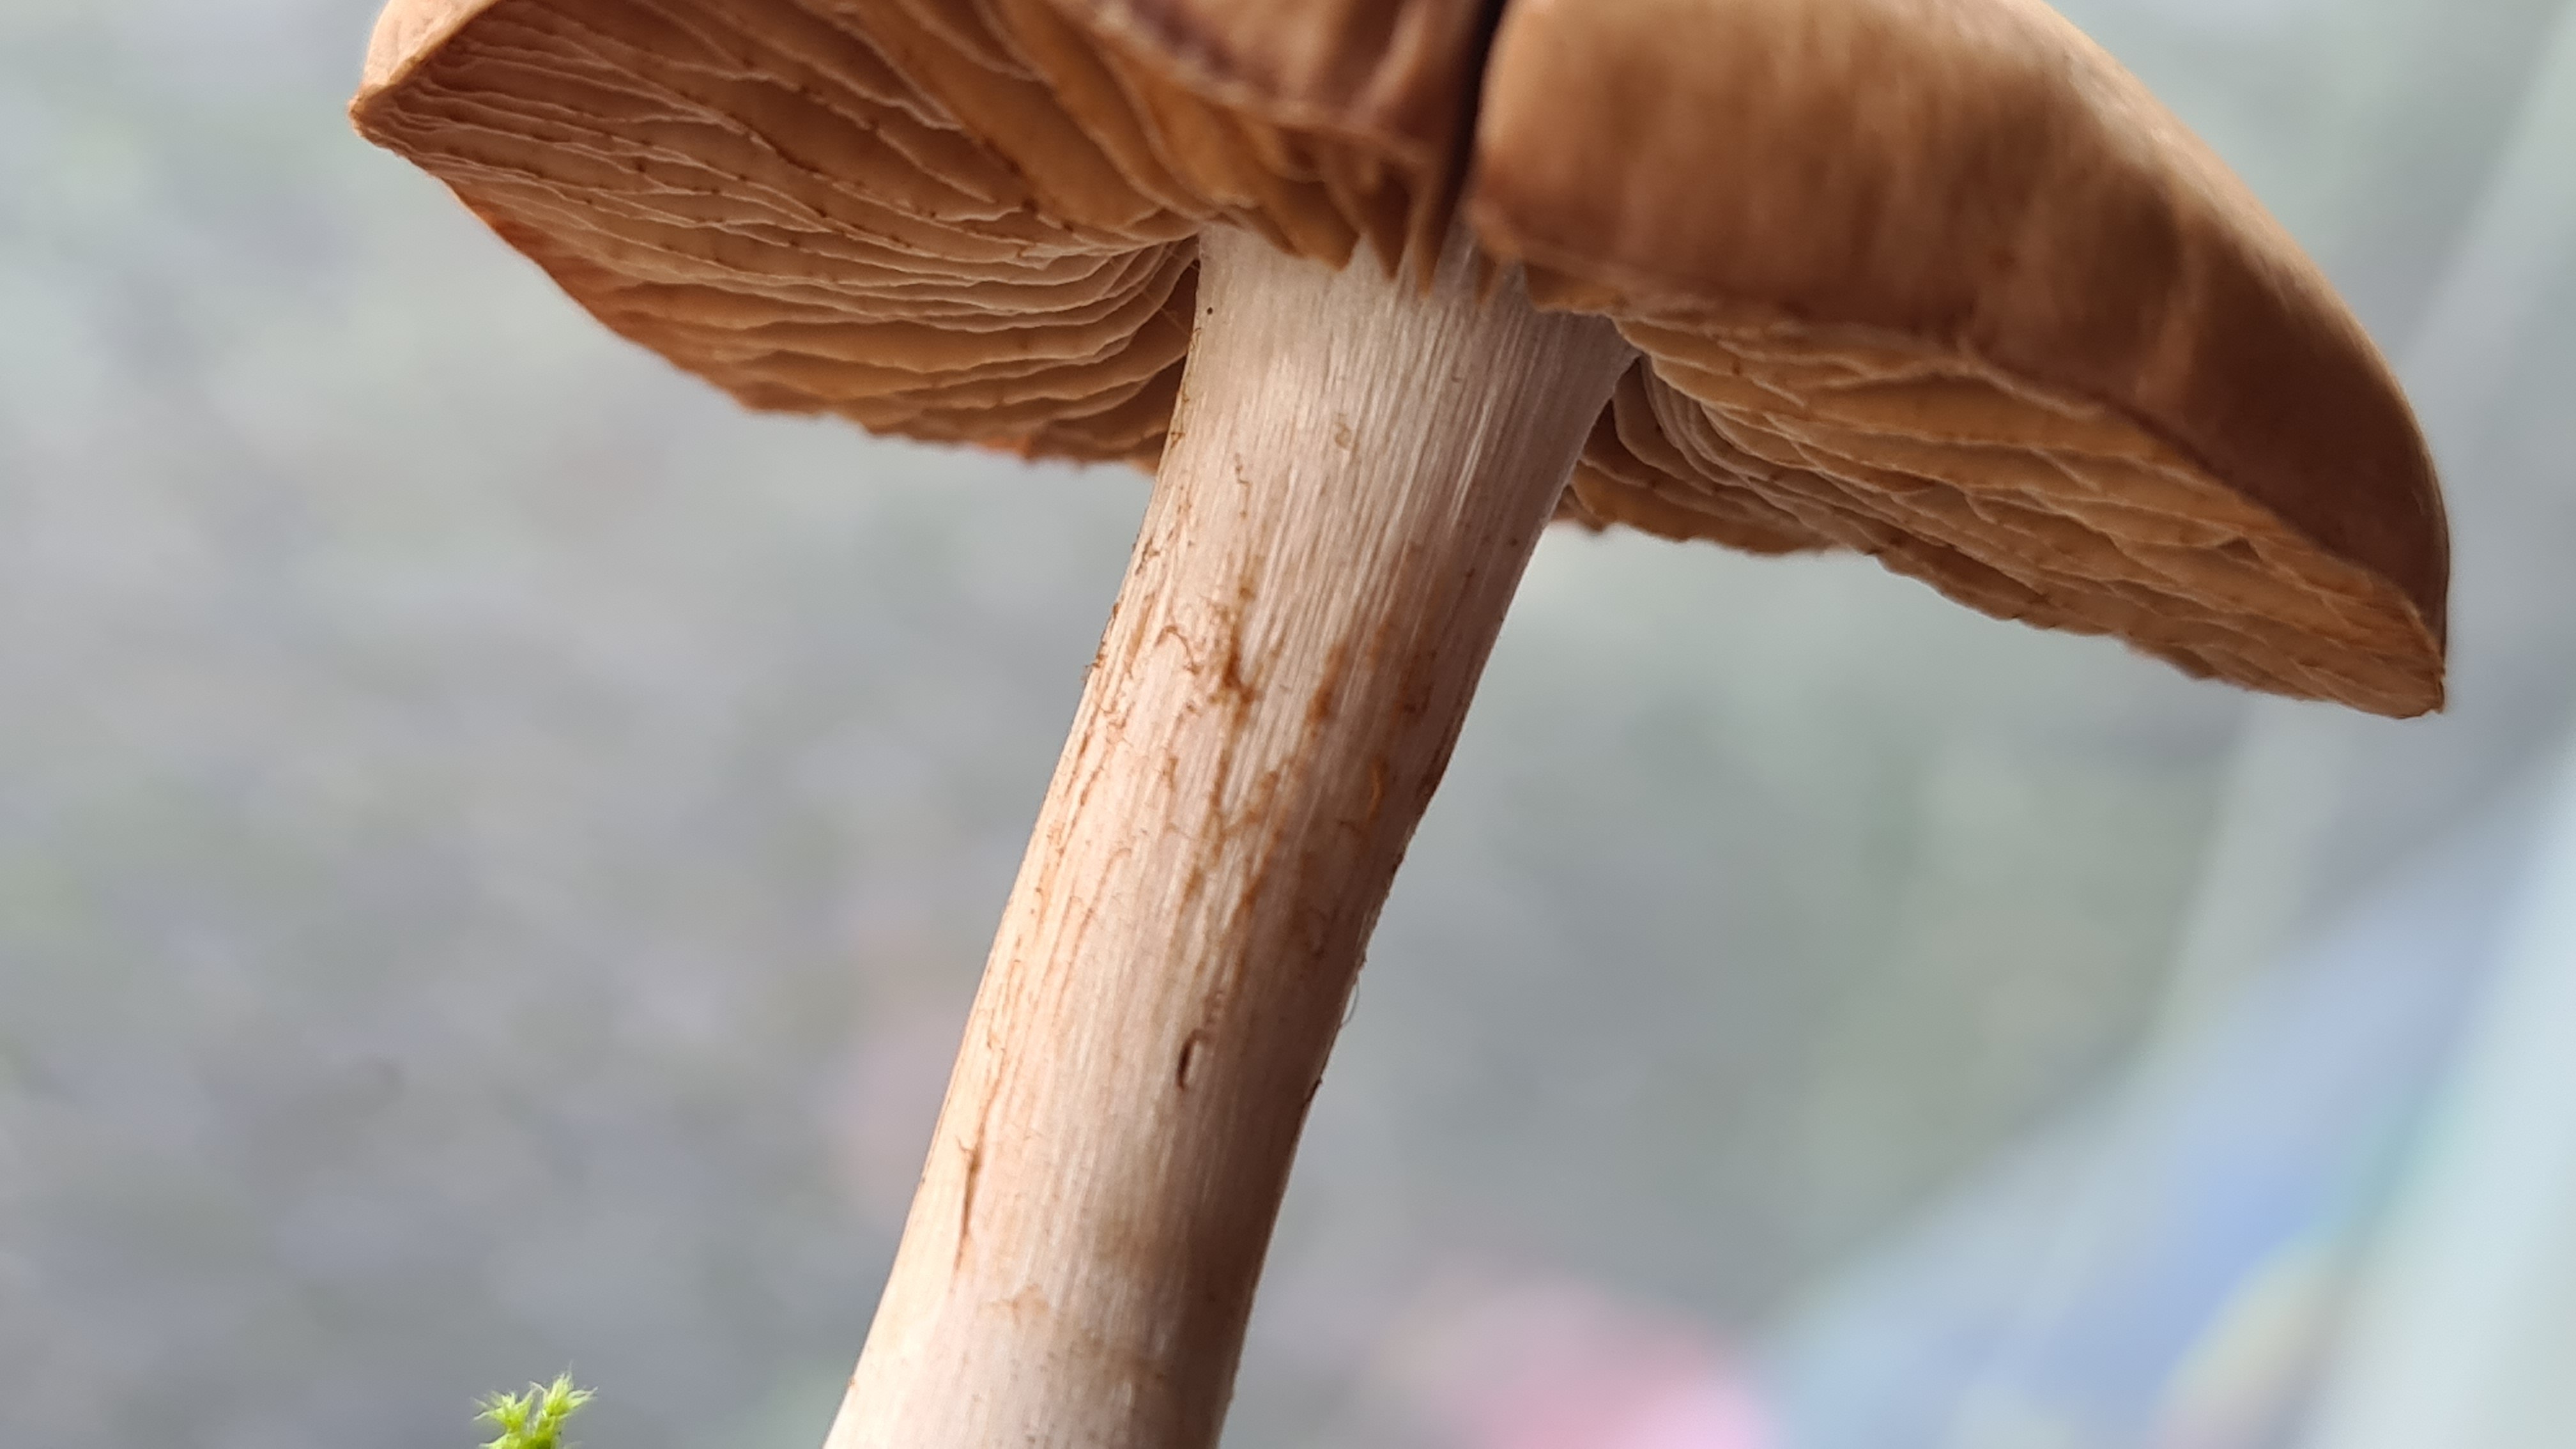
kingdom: Fungi
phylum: Basidiomycota
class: Agaricomycetes
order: Agaricales
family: Cortinariaceae
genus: Cortinarius
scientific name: Cortinarius
